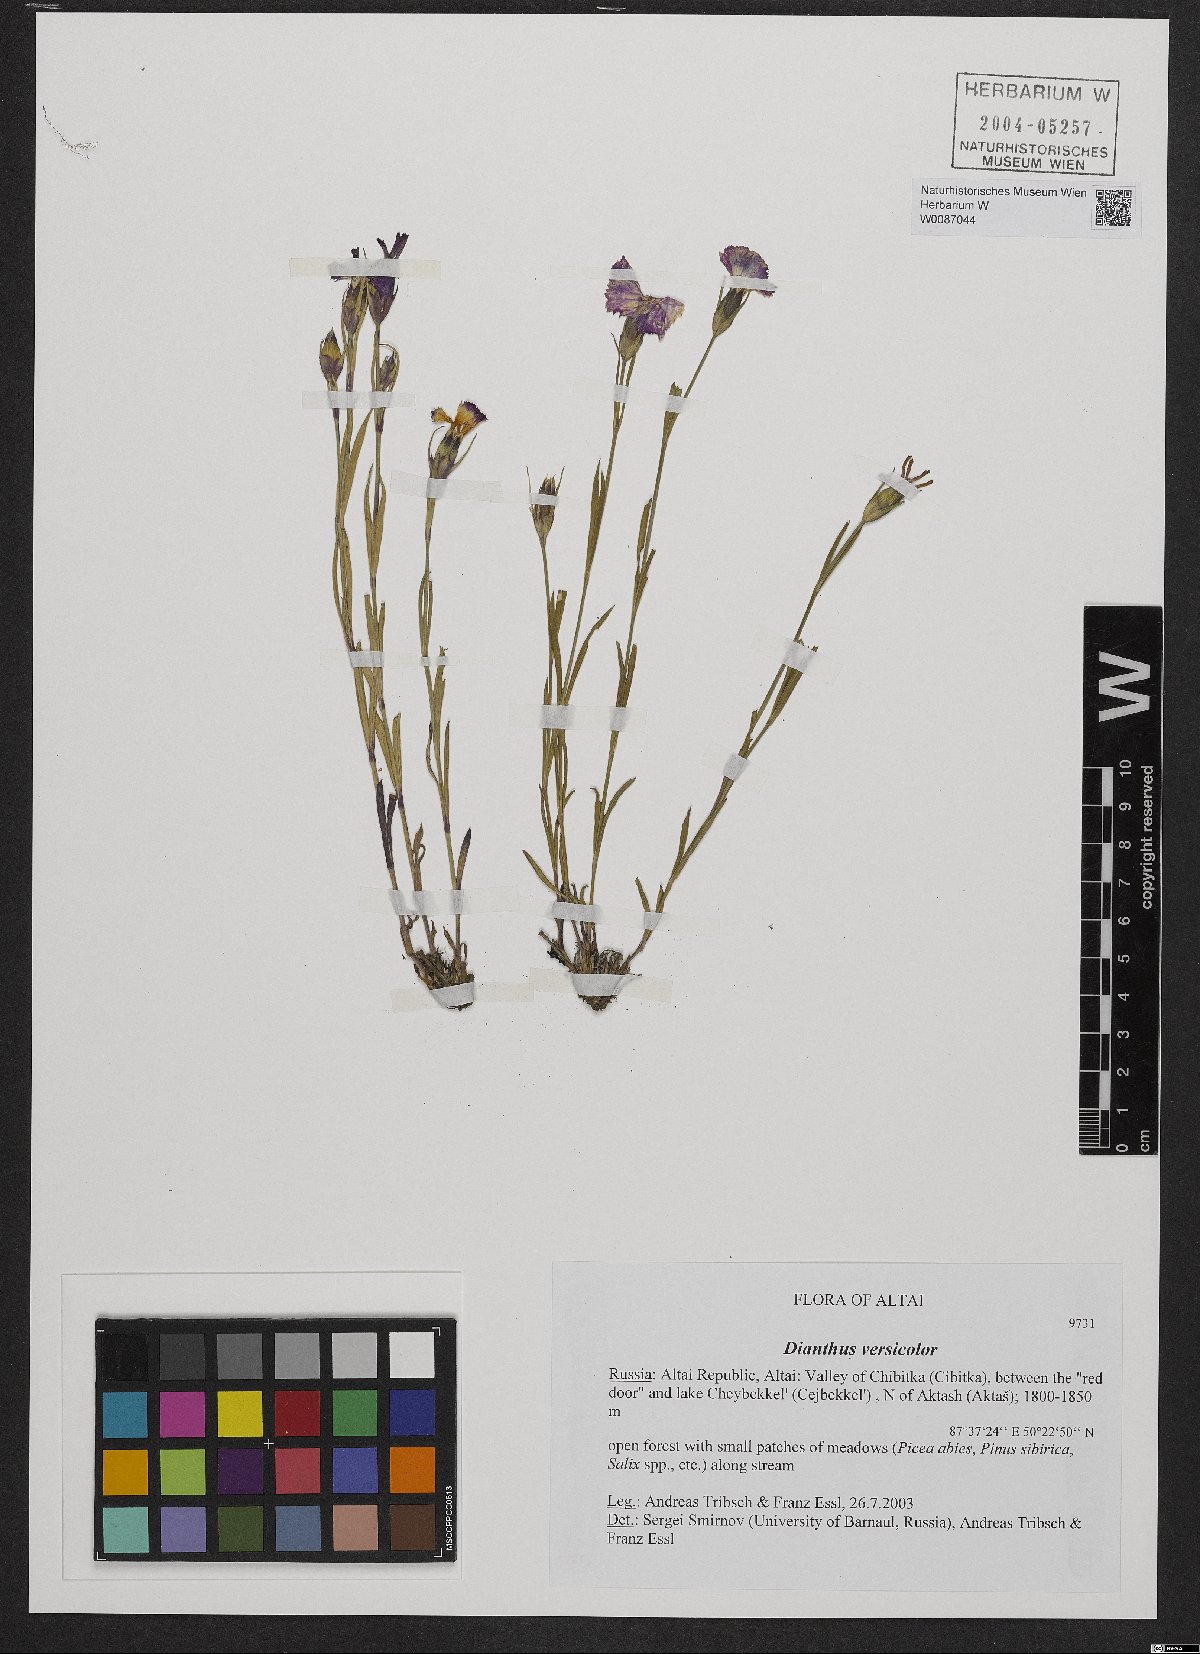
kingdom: Plantae
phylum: Tracheophyta
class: Magnoliopsida
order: Caryophyllales
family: Caryophyllaceae
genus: Dianthus
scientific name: Dianthus chinensis
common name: Rainbow pink
